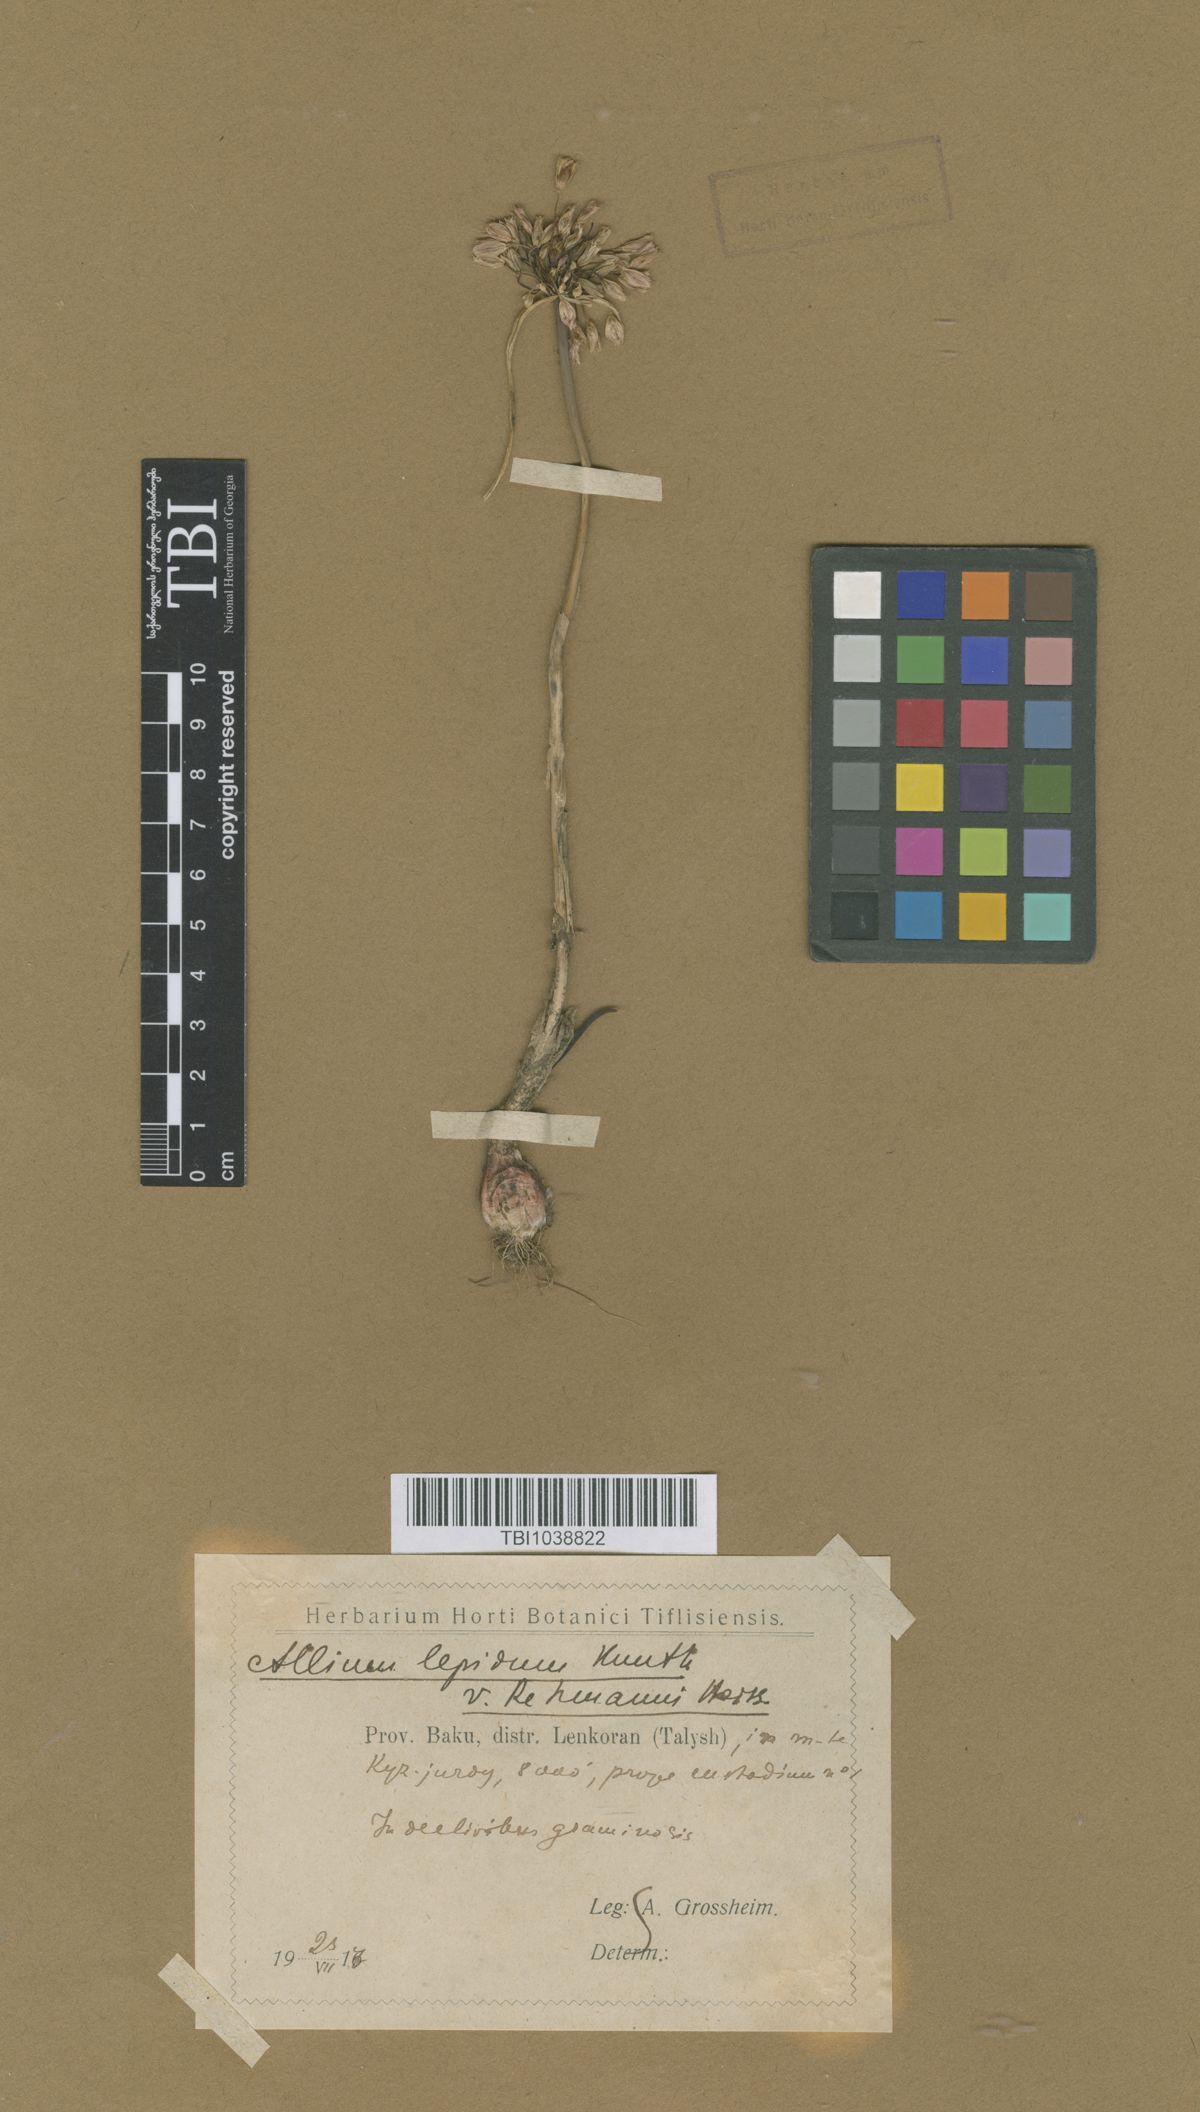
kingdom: Plantae
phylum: Tracheophyta
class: Liliopsida
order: Asparagales
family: Amaryllidaceae
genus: Allium
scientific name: Allium kunthianum
